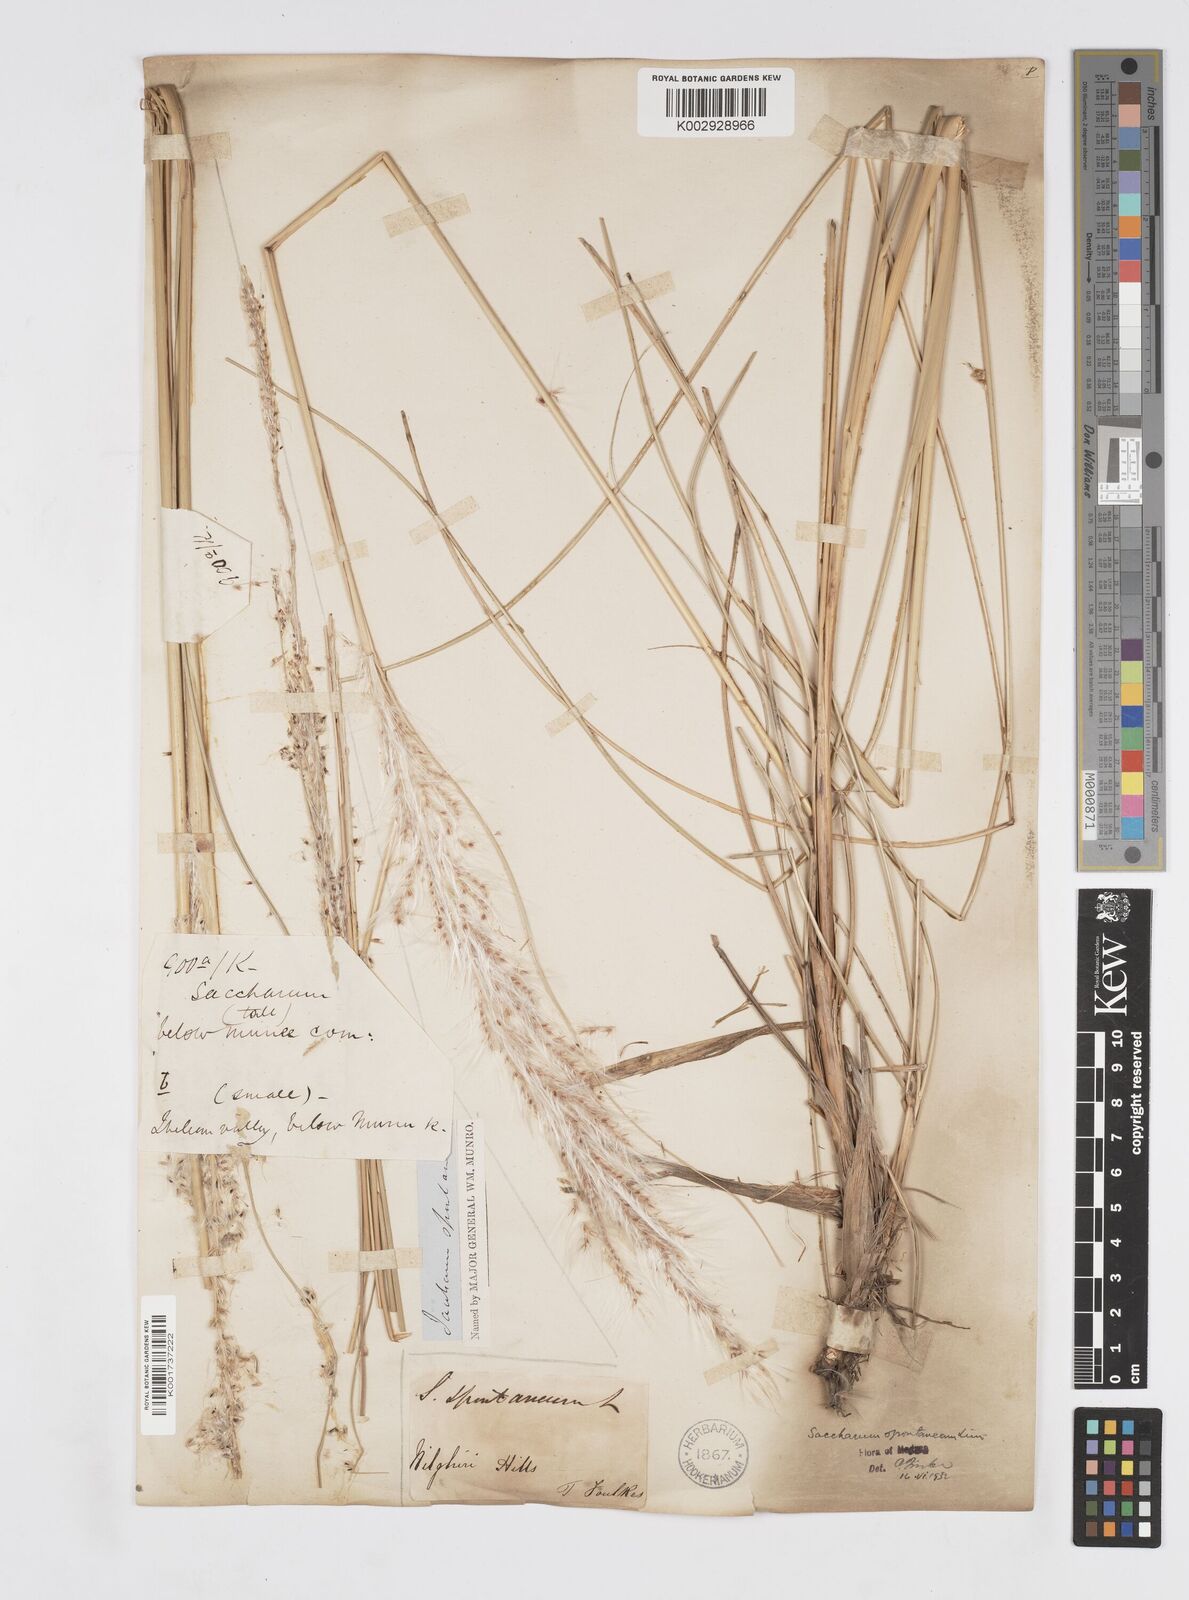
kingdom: Plantae
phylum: Tracheophyta
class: Liliopsida
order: Poales
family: Poaceae
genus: Saccharum
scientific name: Saccharum spontaneum
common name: Wild sugarcane
